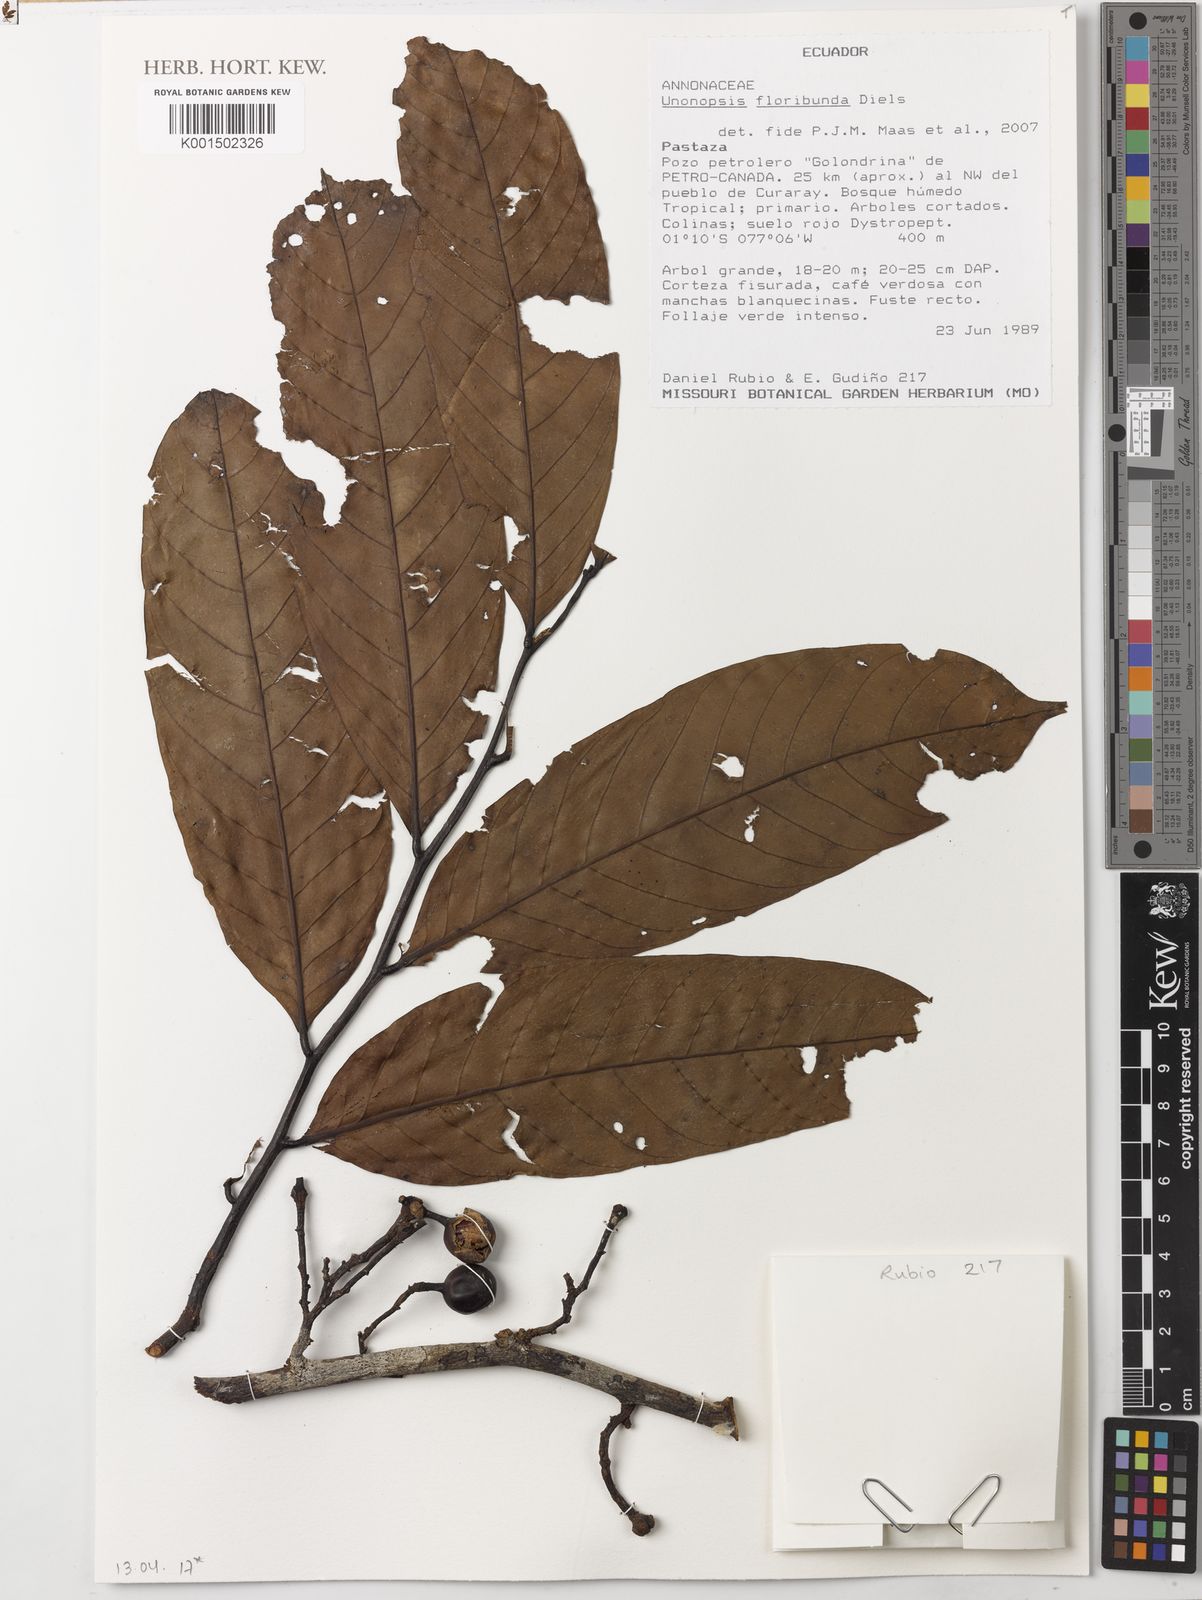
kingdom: Plantae
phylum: Tracheophyta
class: Magnoliopsida
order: Magnoliales
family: Annonaceae
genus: Unonopsis
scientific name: Unonopsis floribunda
